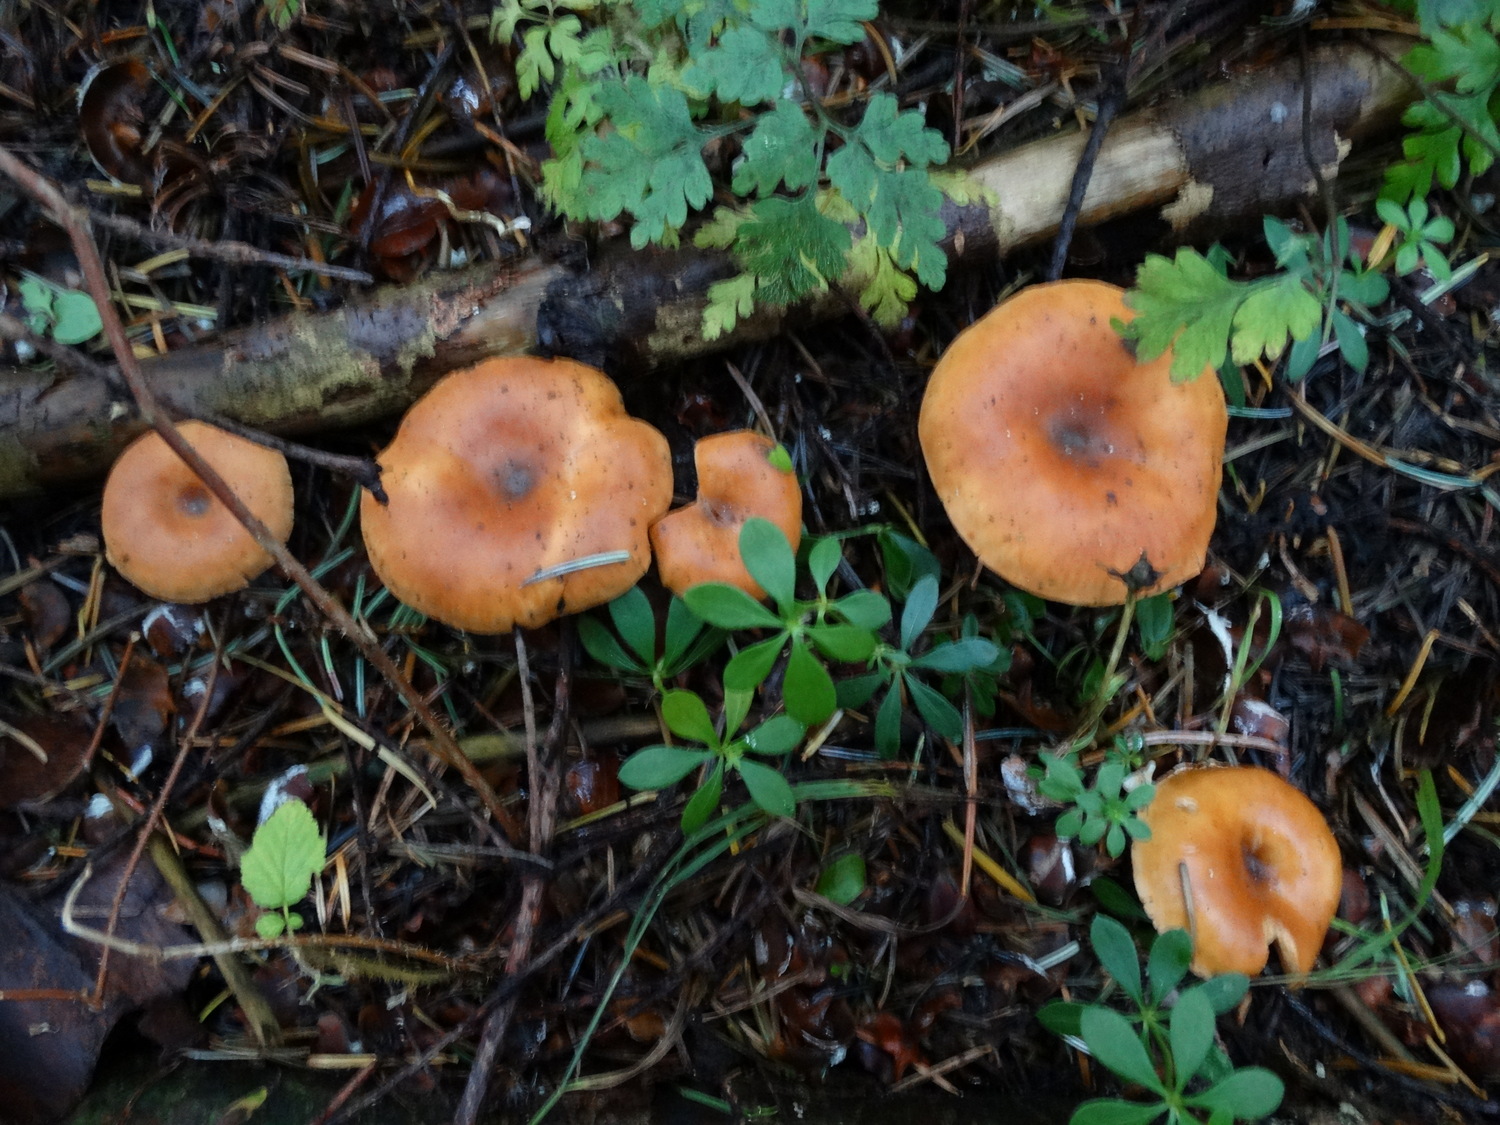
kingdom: Fungi
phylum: Basidiomycota
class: Agaricomycetes
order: Agaricales
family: Tricholomataceae
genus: Paralepista
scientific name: Paralepista flaccida
